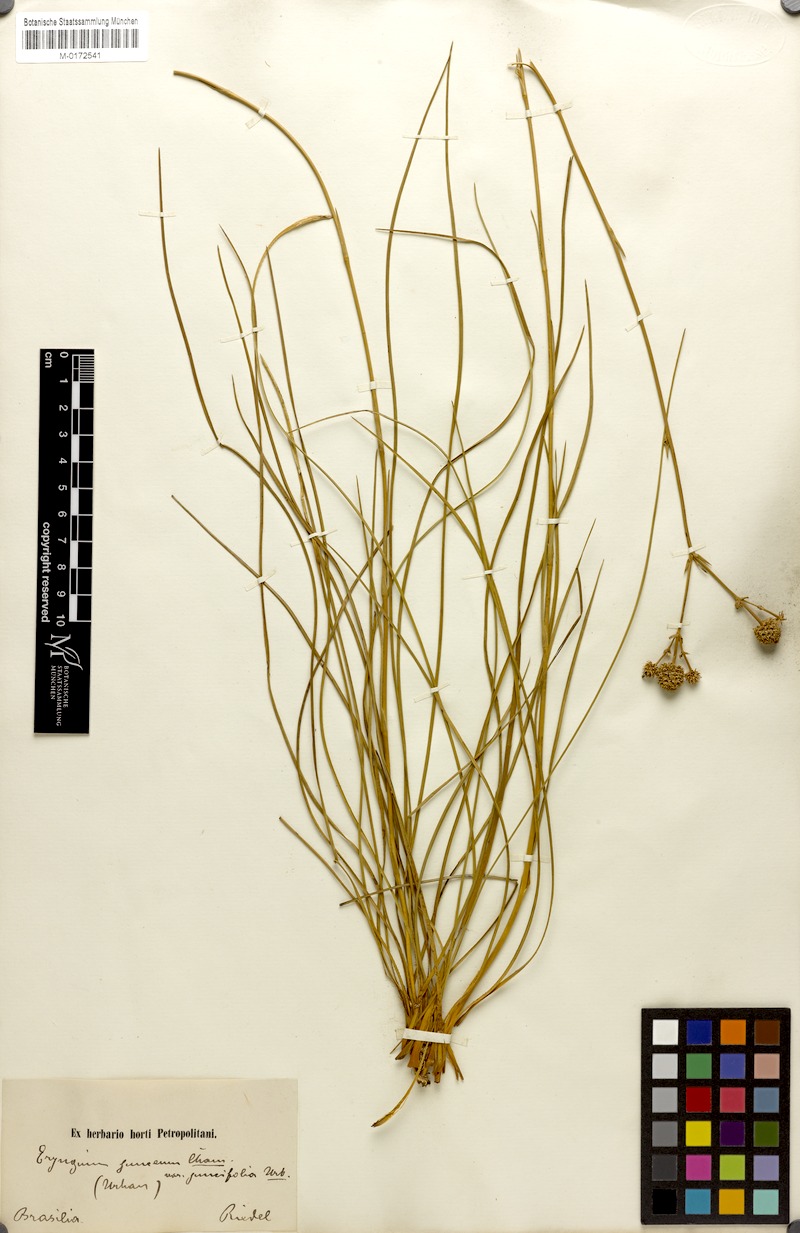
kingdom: Plantae
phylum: Tracheophyta
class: Magnoliopsida
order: Apiales
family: Apiaceae
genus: Eryngium
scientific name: Eryngium juncifolium
